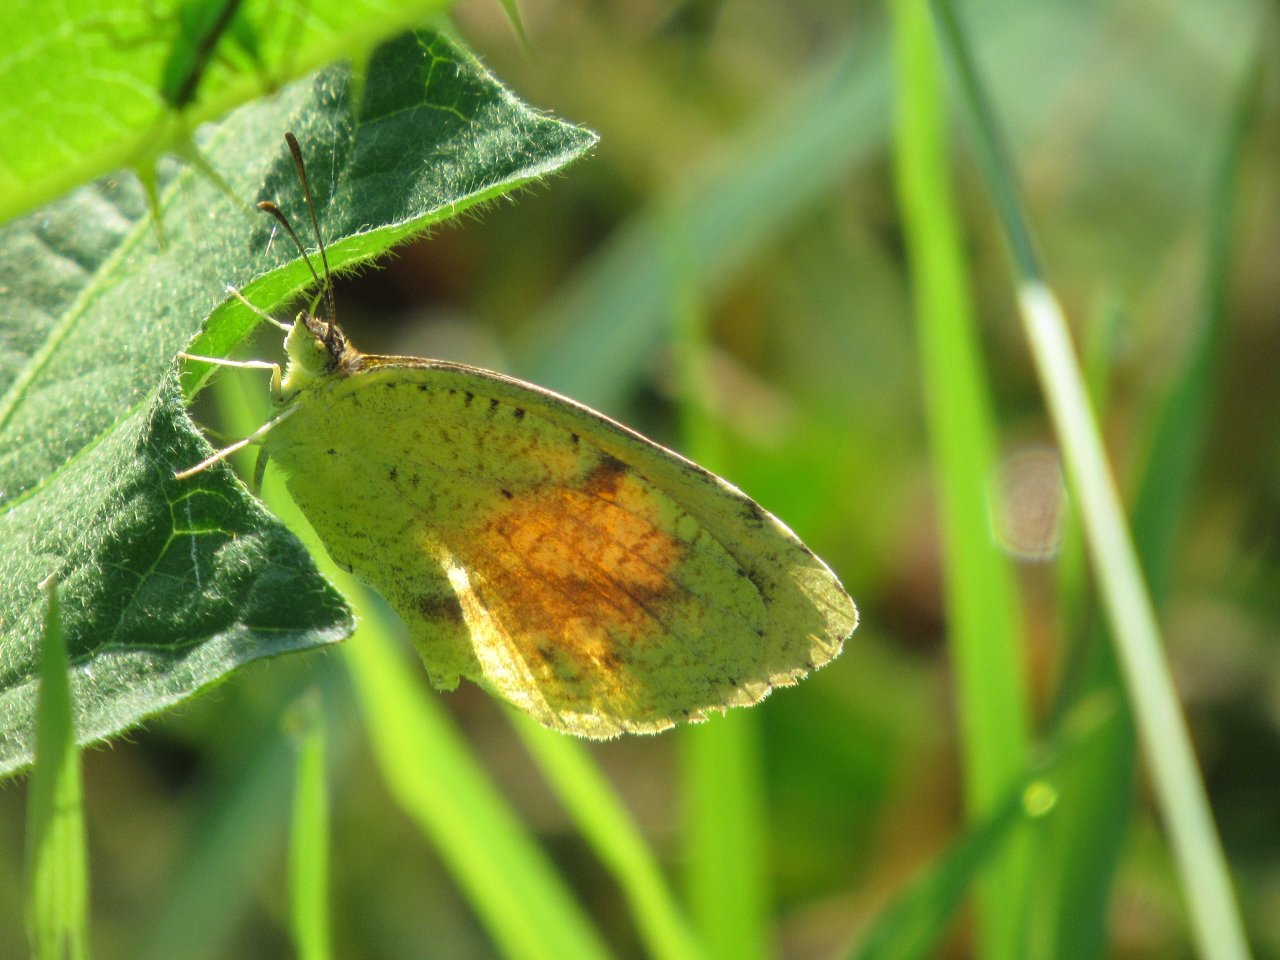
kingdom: Animalia
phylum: Arthropoda
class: Insecta
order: Lepidoptera
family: Pieridae
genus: Abaeis
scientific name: Abaeis nicippe
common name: Sleepy Orange
